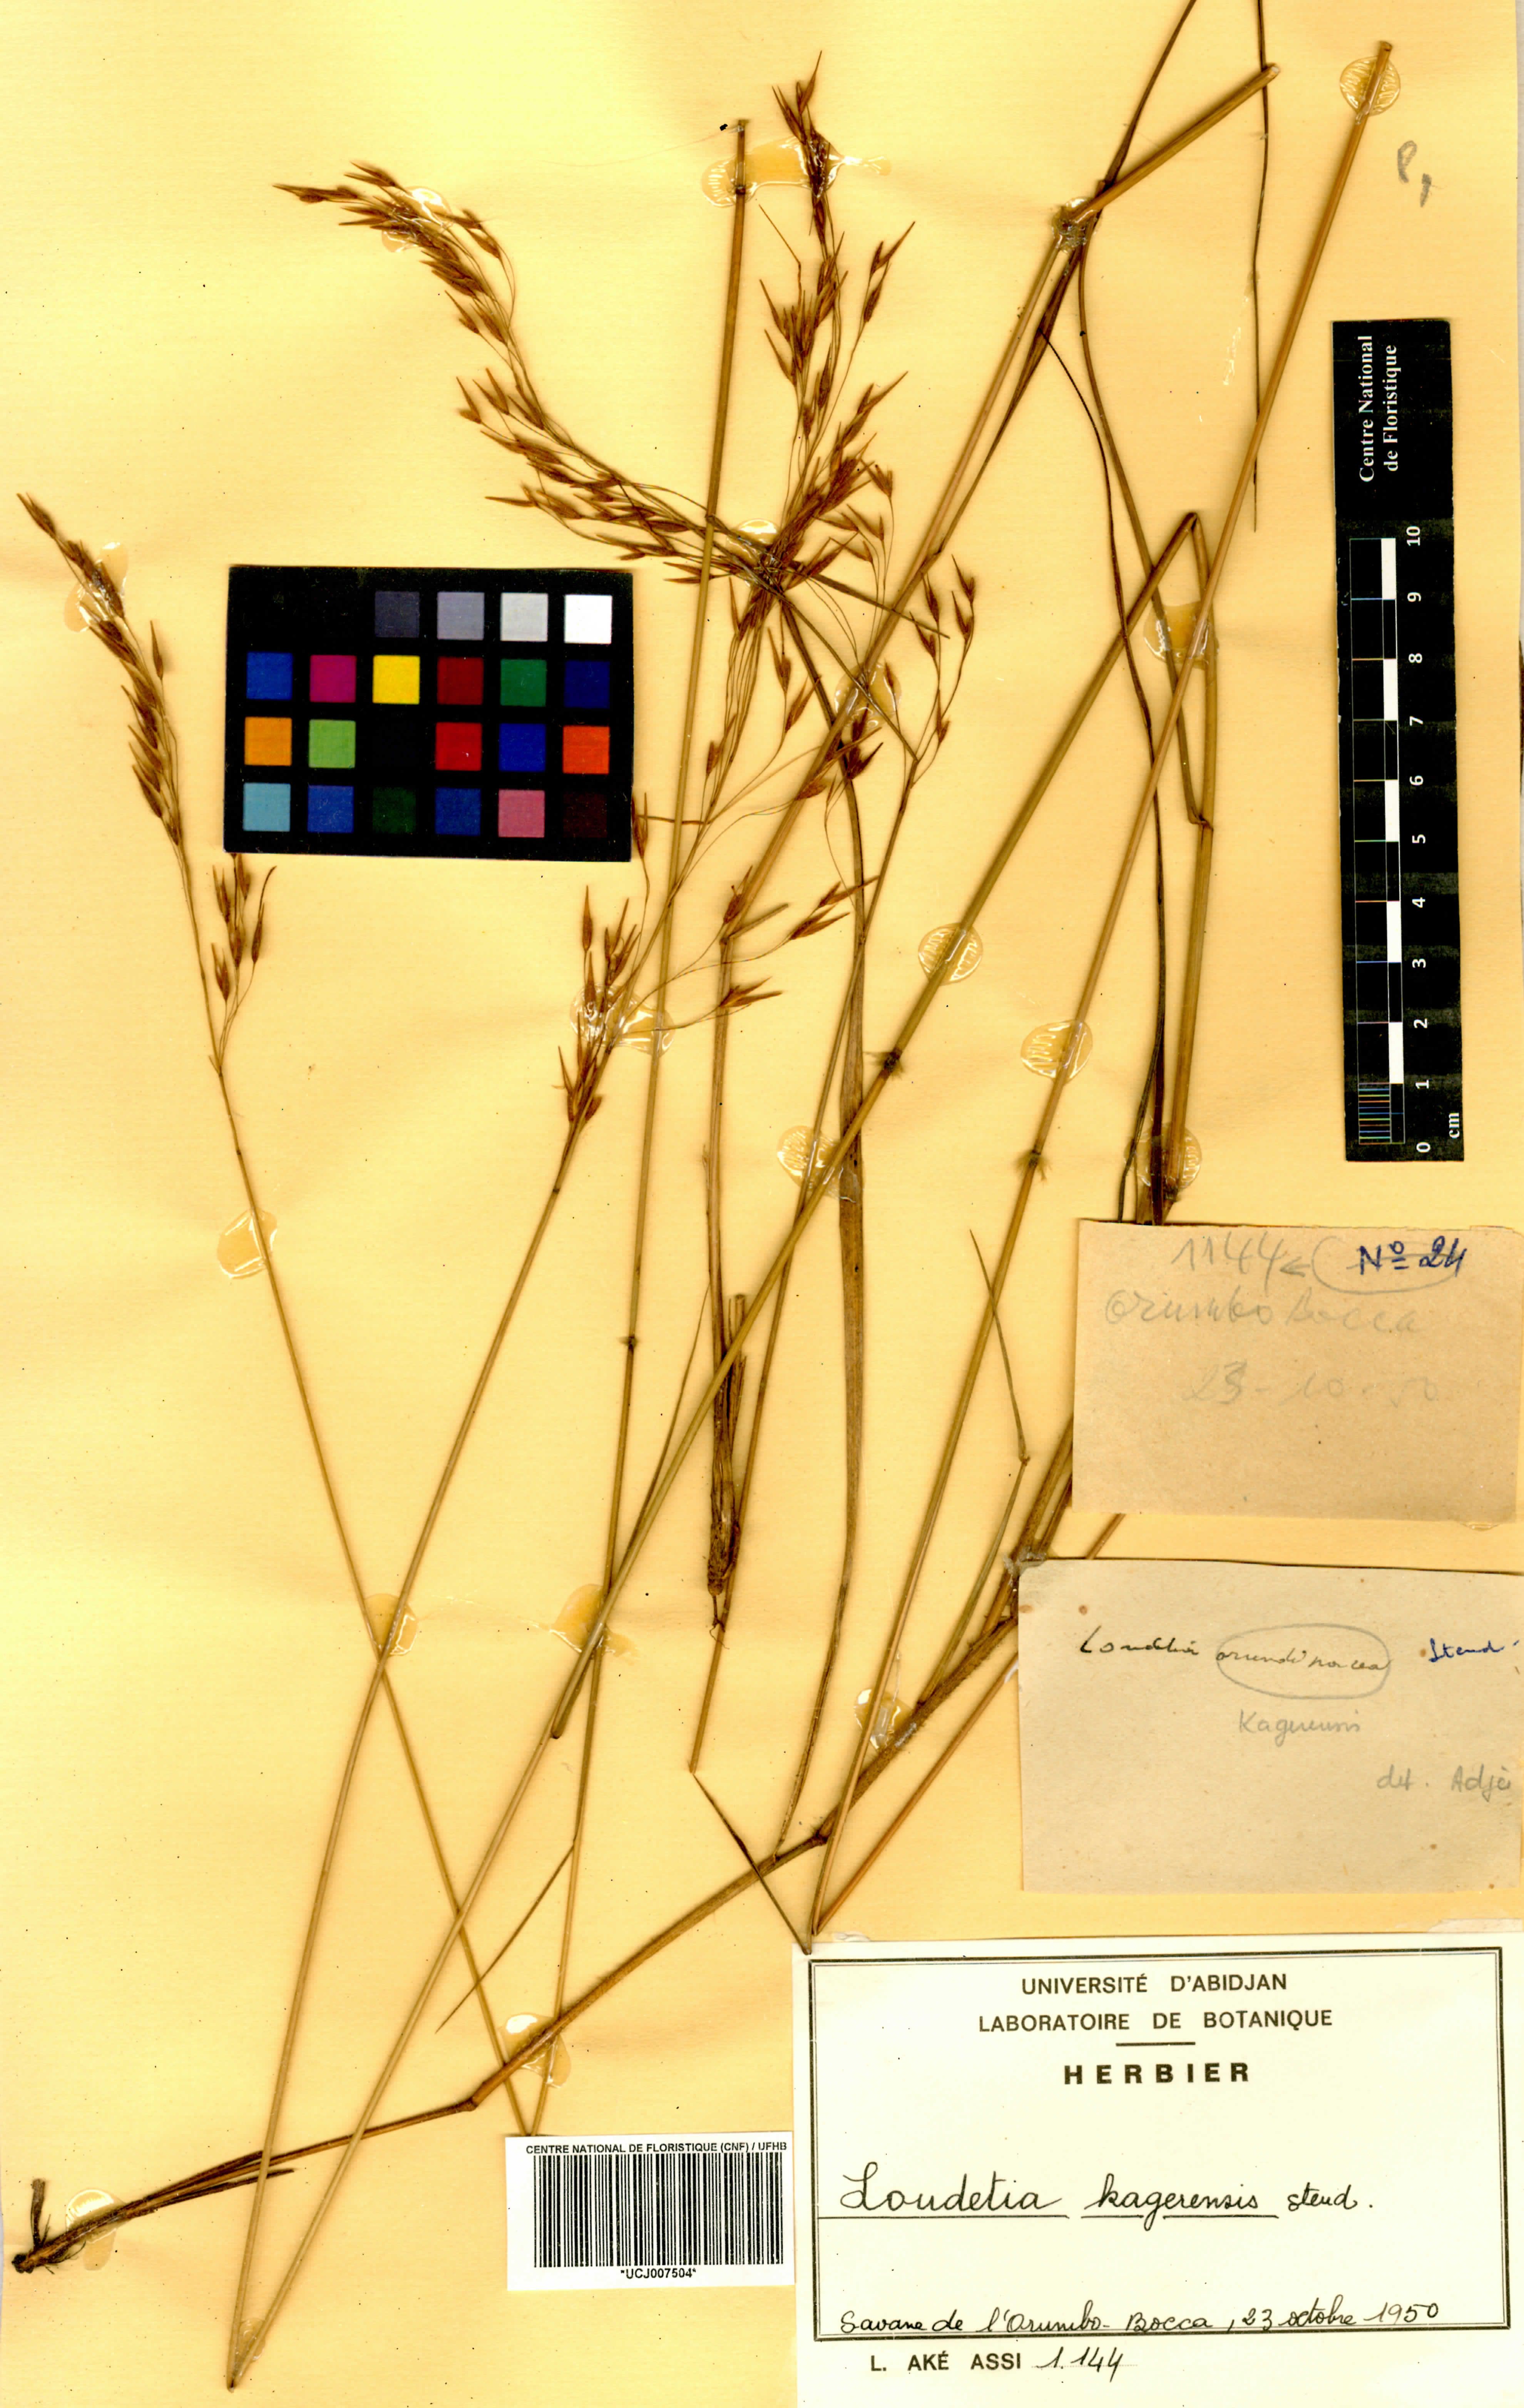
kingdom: Plantae
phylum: Tracheophyta
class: Liliopsida
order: Poales
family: Poaceae
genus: Loudetia
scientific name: Loudetia kagerensis
